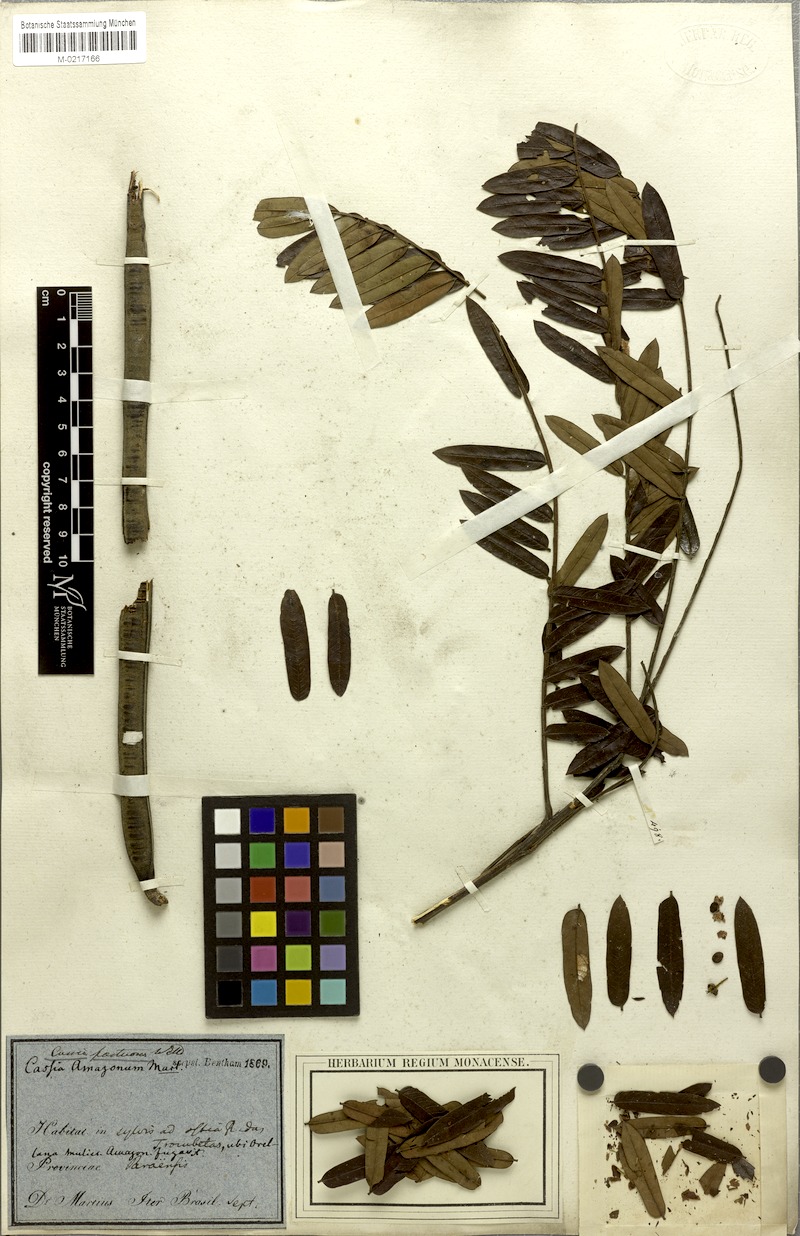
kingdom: Plantae
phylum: Tracheophyta
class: Magnoliopsida
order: Fabales
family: Fabaceae
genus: Cassia
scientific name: Cassia
